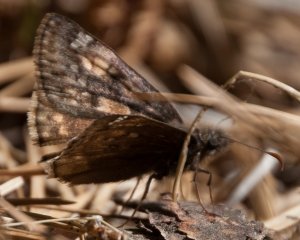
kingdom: Animalia
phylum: Arthropoda
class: Insecta
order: Lepidoptera
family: Hesperiidae
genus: Gesta
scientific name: Gesta
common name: Juvenal's Duskywing
